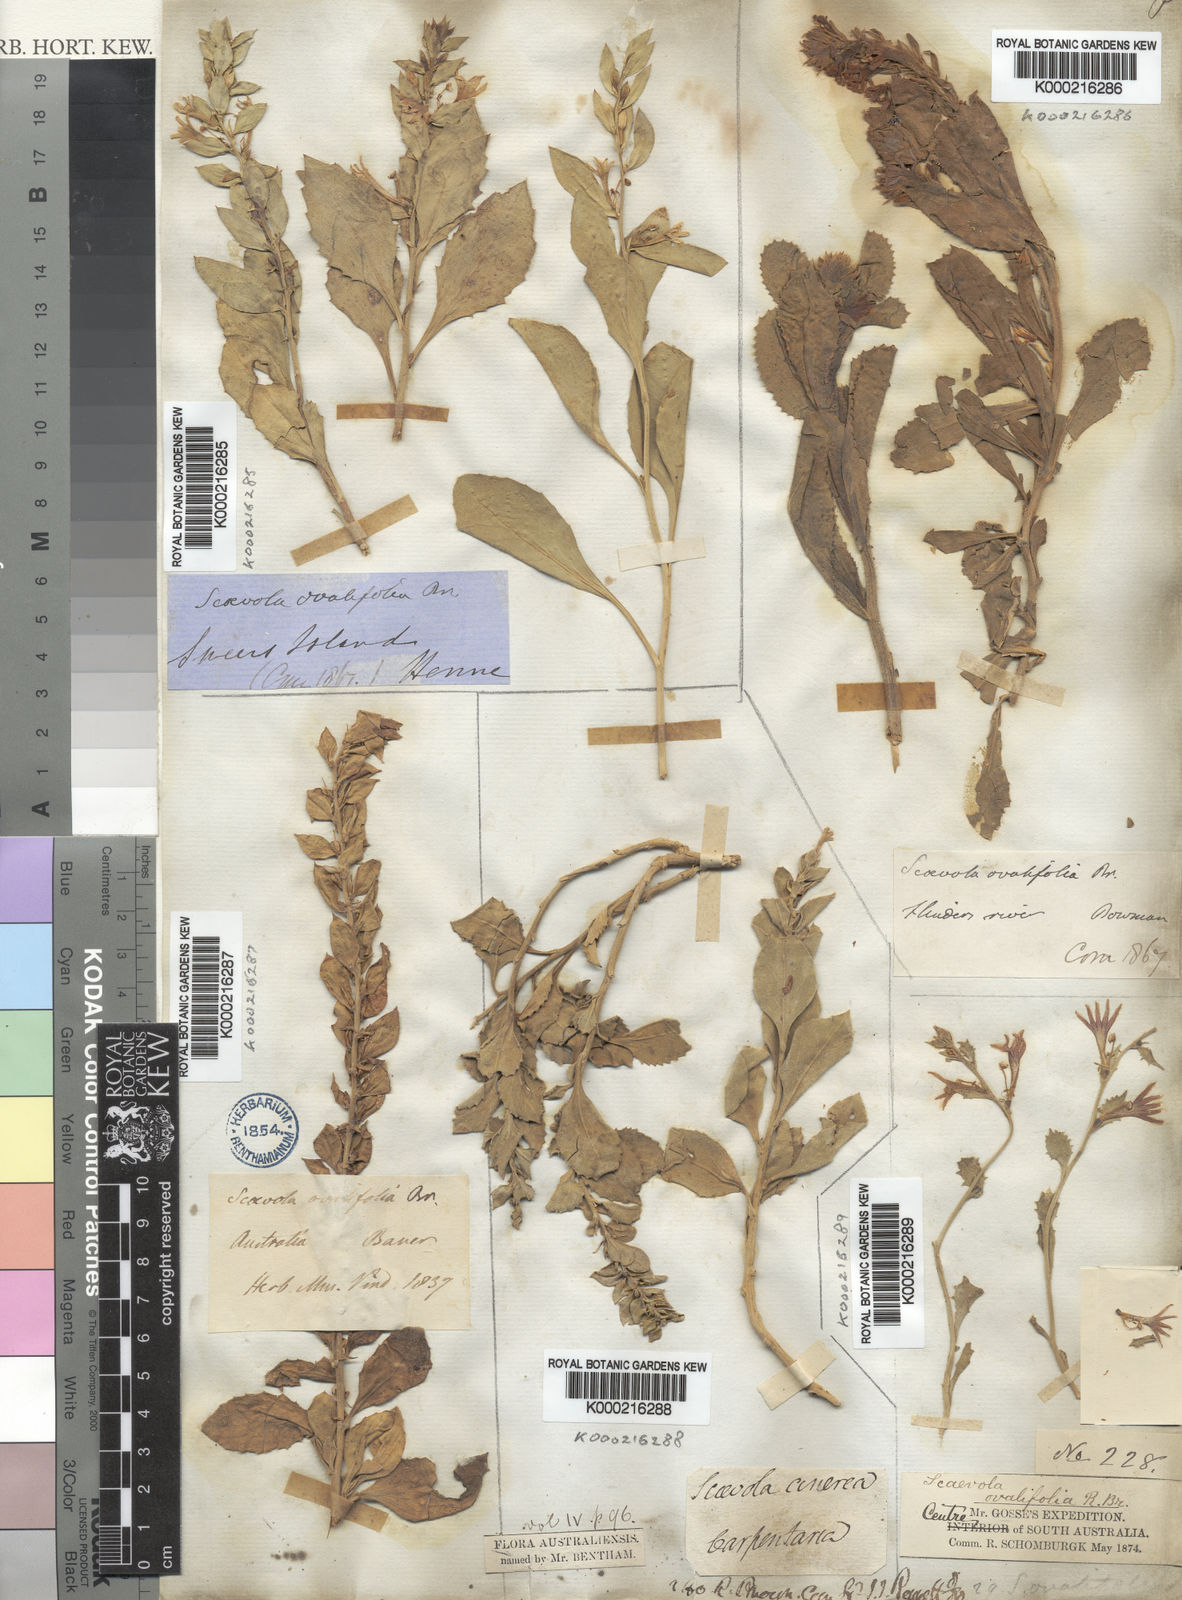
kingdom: Plantae
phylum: Tracheophyta
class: Magnoliopsida
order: Asterales
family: Goodeniaceae
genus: Scaevola
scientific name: Scaevola ovalifolia
